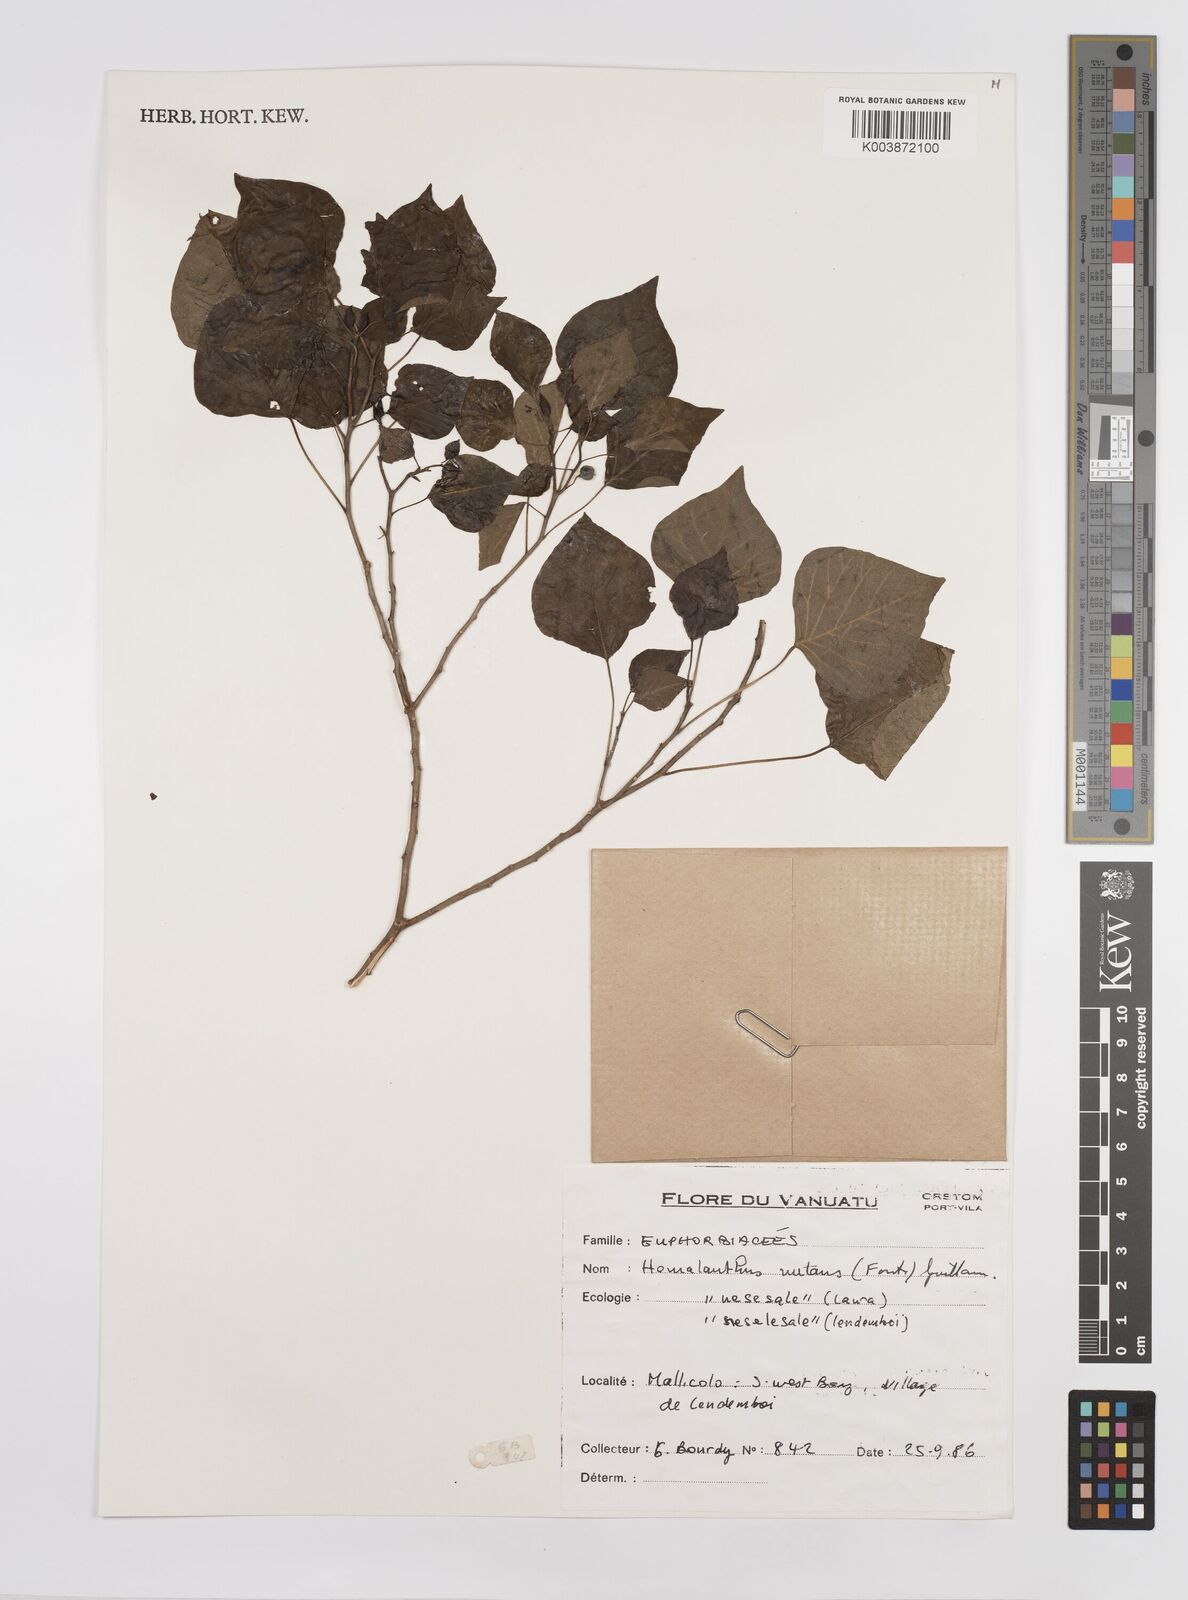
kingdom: Plantae
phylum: Tracheophyta
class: Magnoliopsida
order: Malpighiales
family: Euphorbiaceae
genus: Homalanthus
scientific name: Homalanthus nutans
